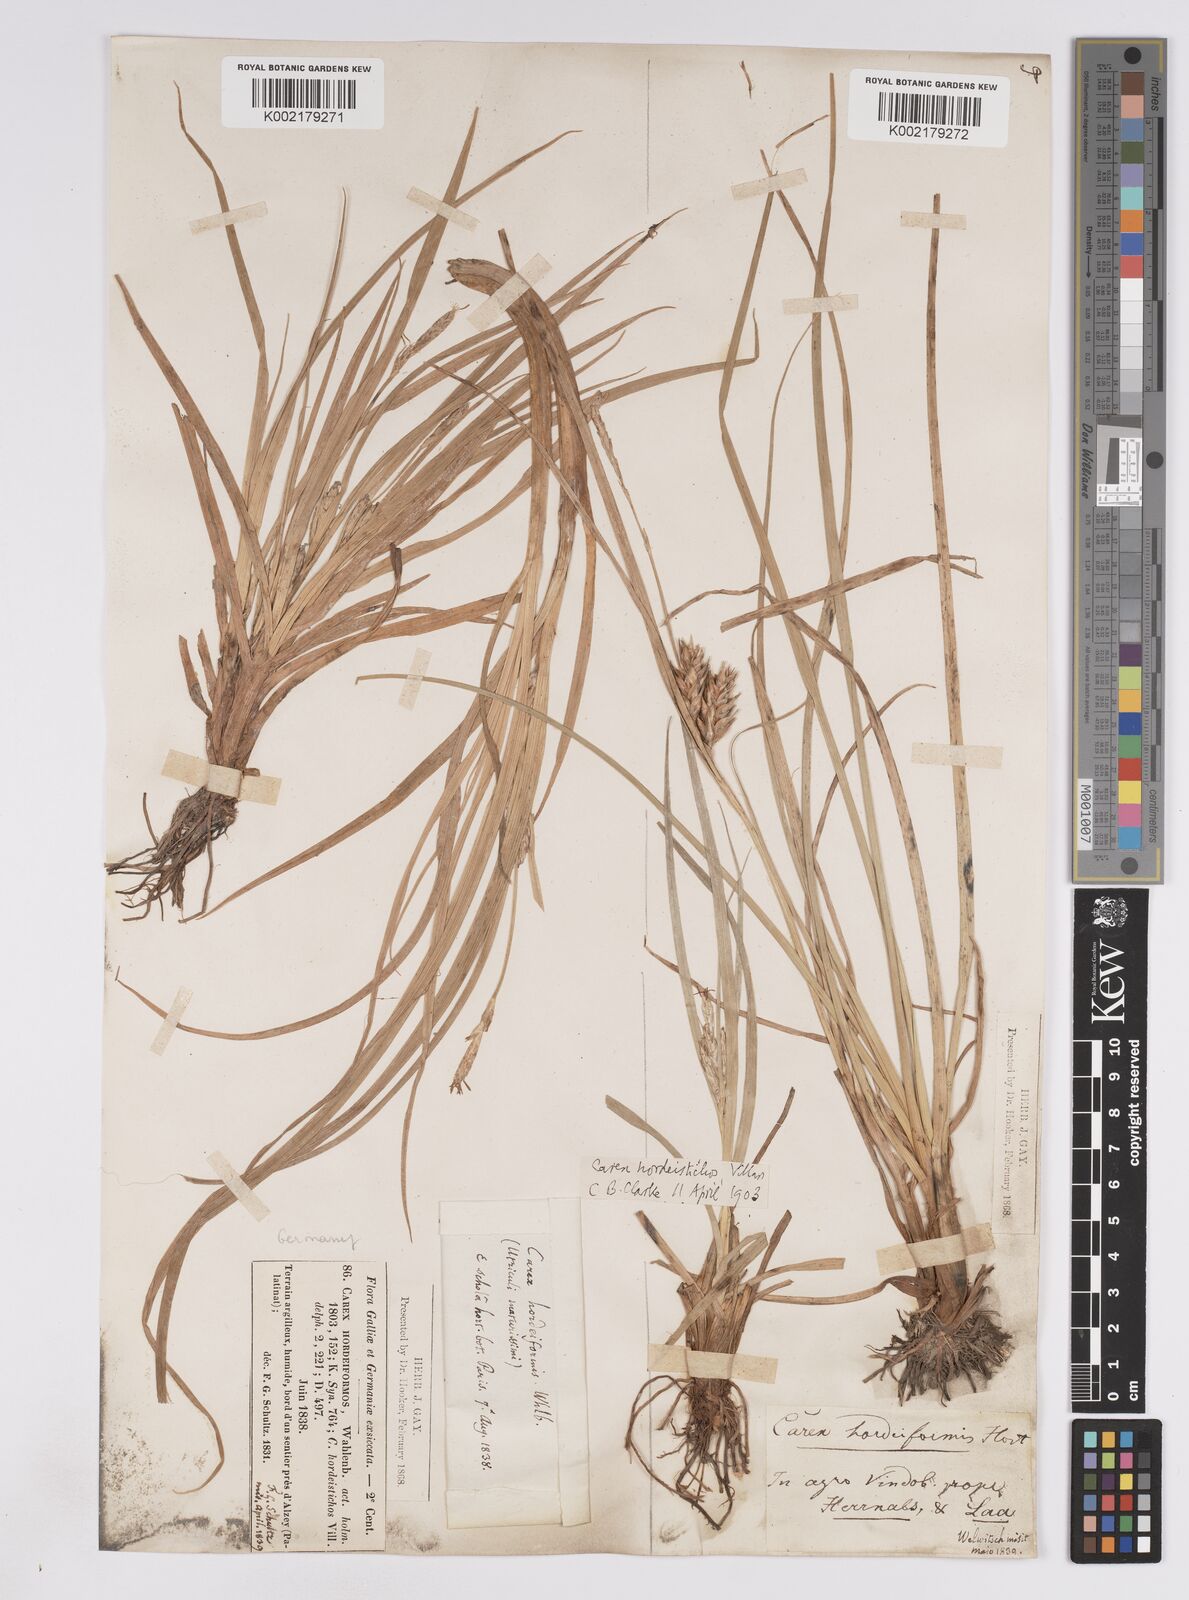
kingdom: Plantae
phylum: Tracheophyta
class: Liliopsida
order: Poales
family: Cyperaceae
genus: Carex
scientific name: Carex hordeistichos
